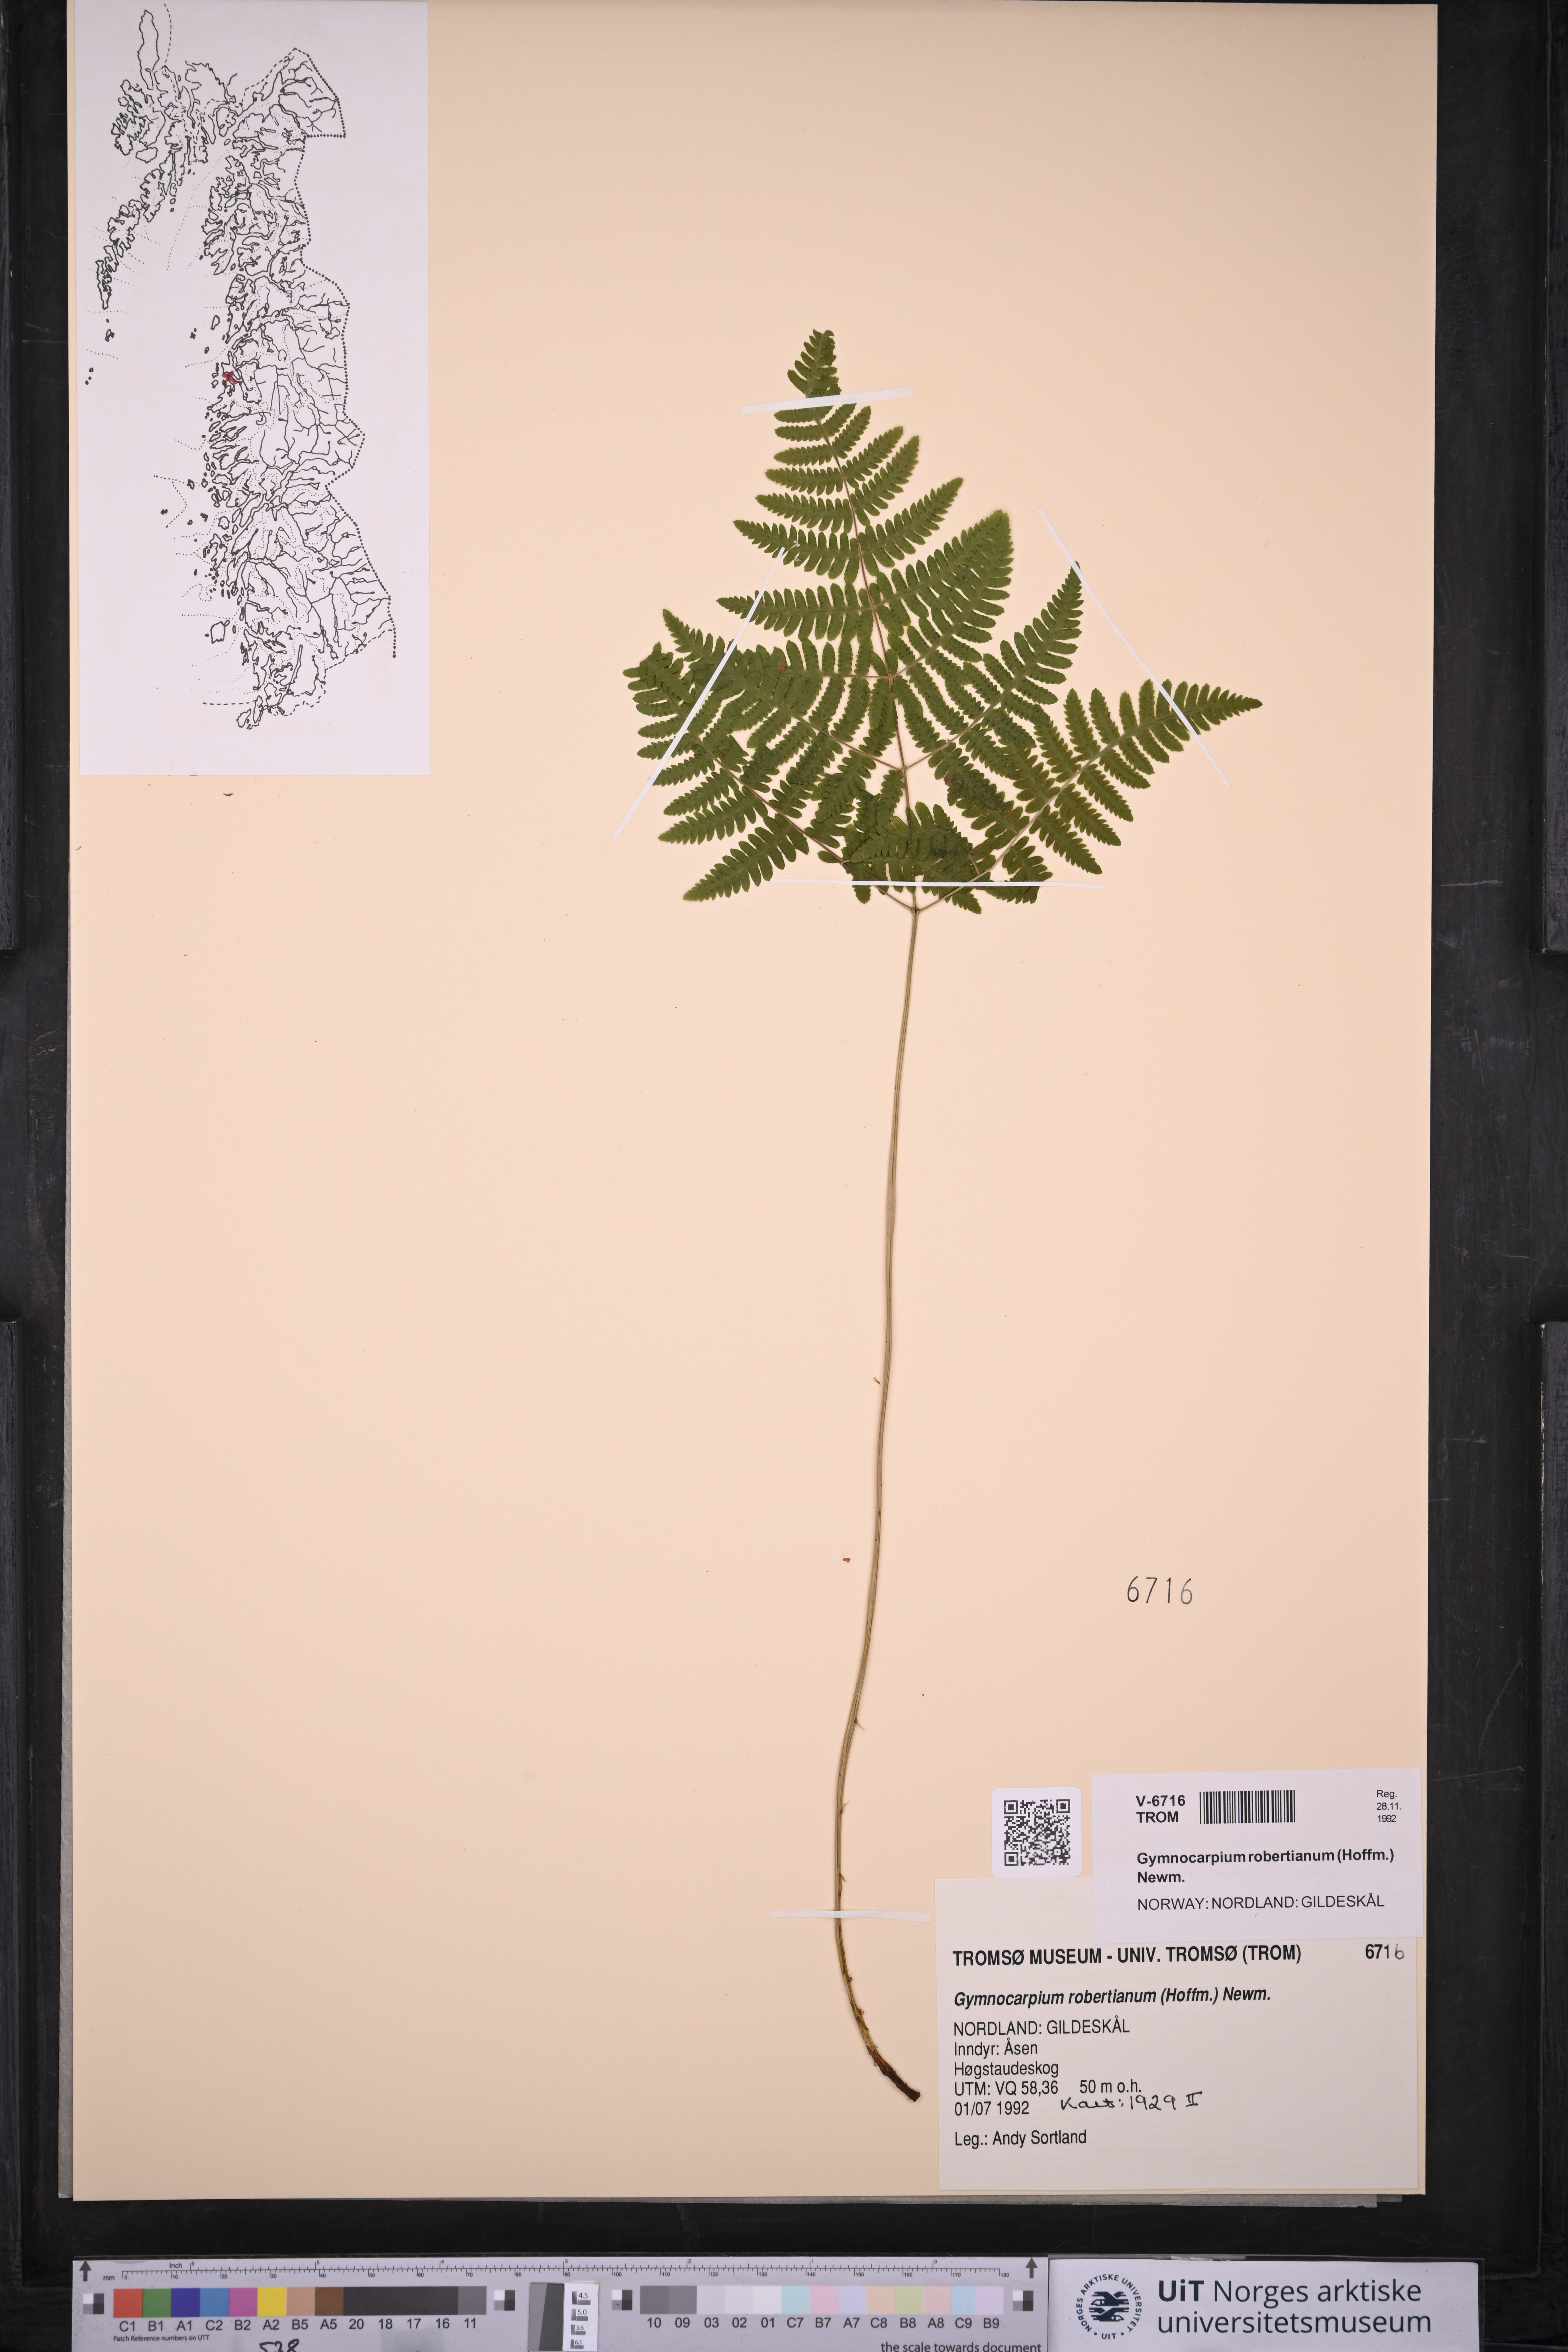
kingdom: Plantae
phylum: Tracheophyta
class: Polypodiopsida
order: Polypodiales
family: Cystopteridaceae
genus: Gymnocarpium
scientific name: Gymnocarpium robertianum
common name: Limestone fern
